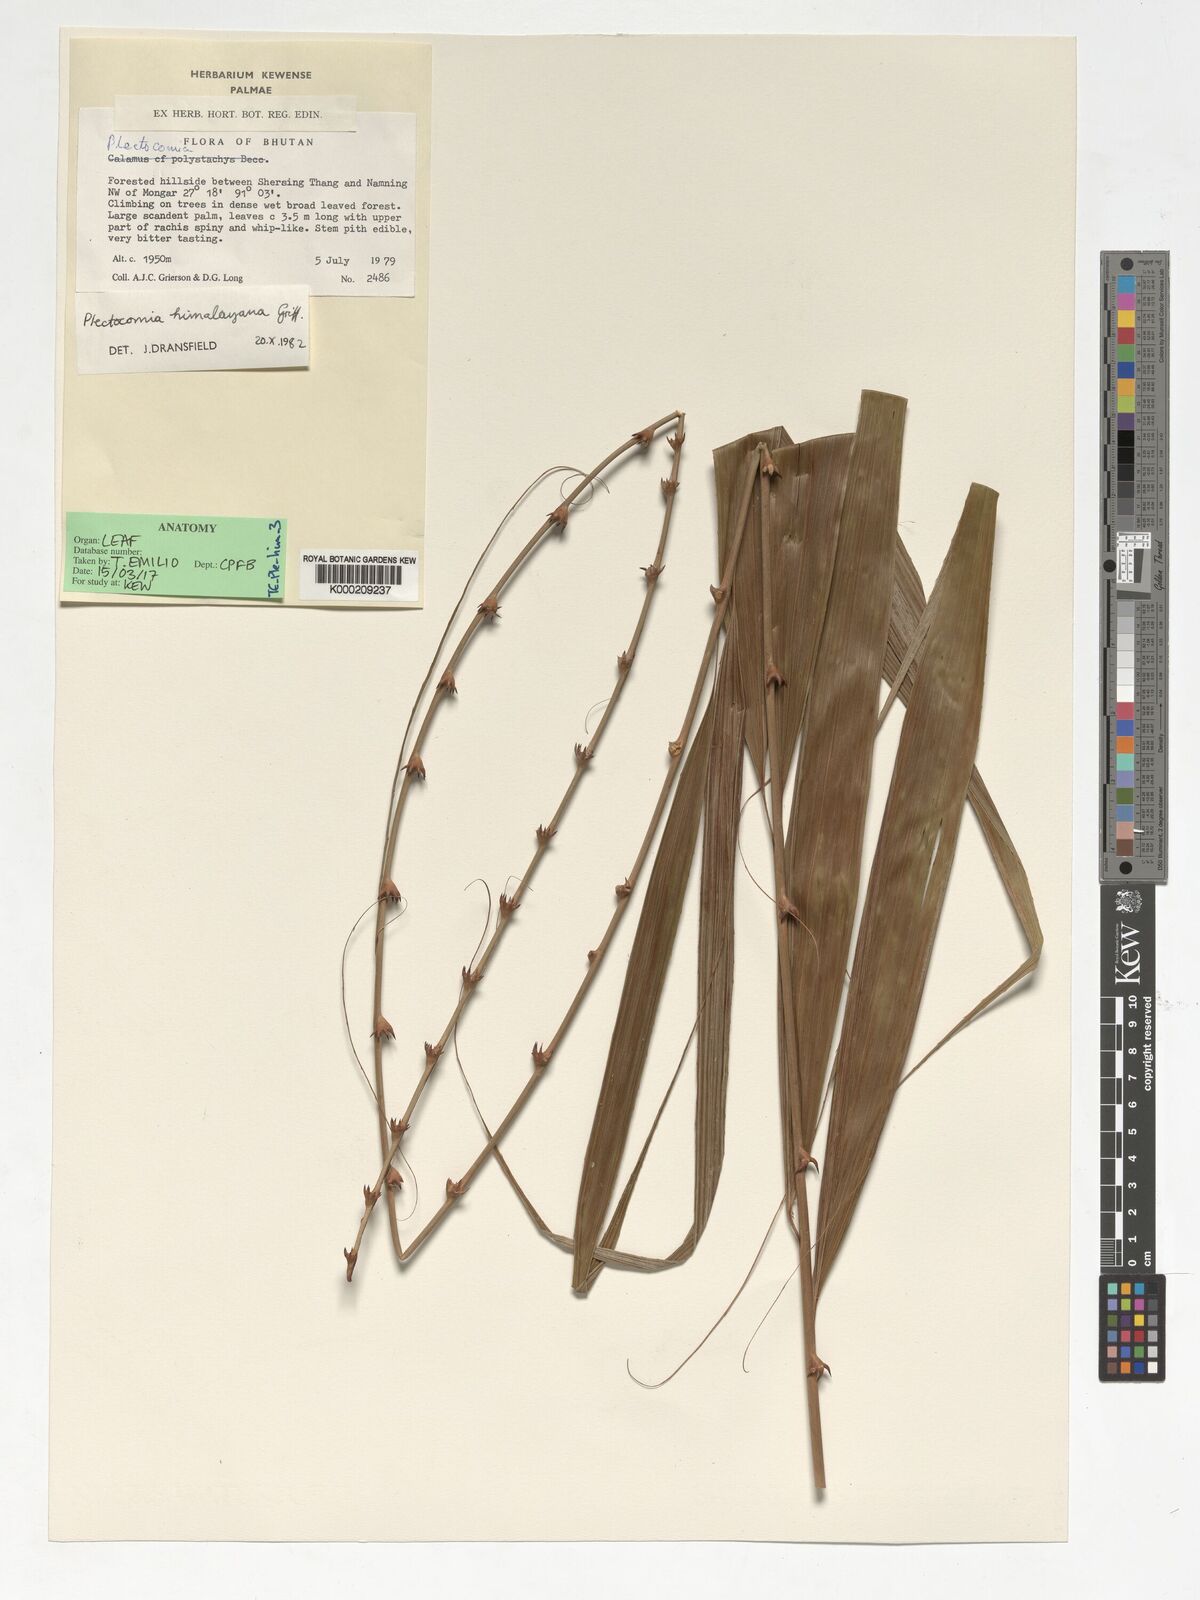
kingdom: Plantae
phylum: Tracheophyta
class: Liliopsida
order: Arecales
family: Arecaceae
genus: Plectocomia
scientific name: Plectocomia himalayana
